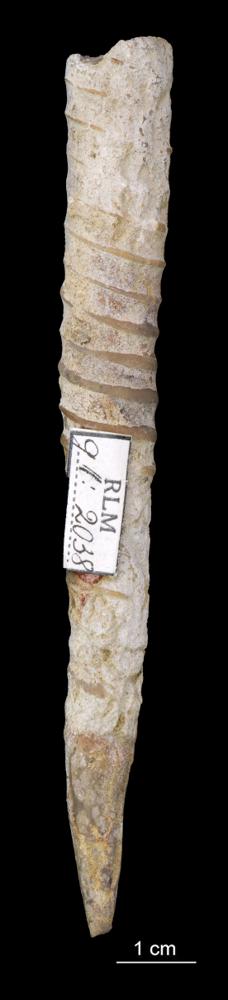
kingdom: Animalia
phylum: Mollusca
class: Cephalopoda
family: Endoceratidae
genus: Endoceras
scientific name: Endoceras
